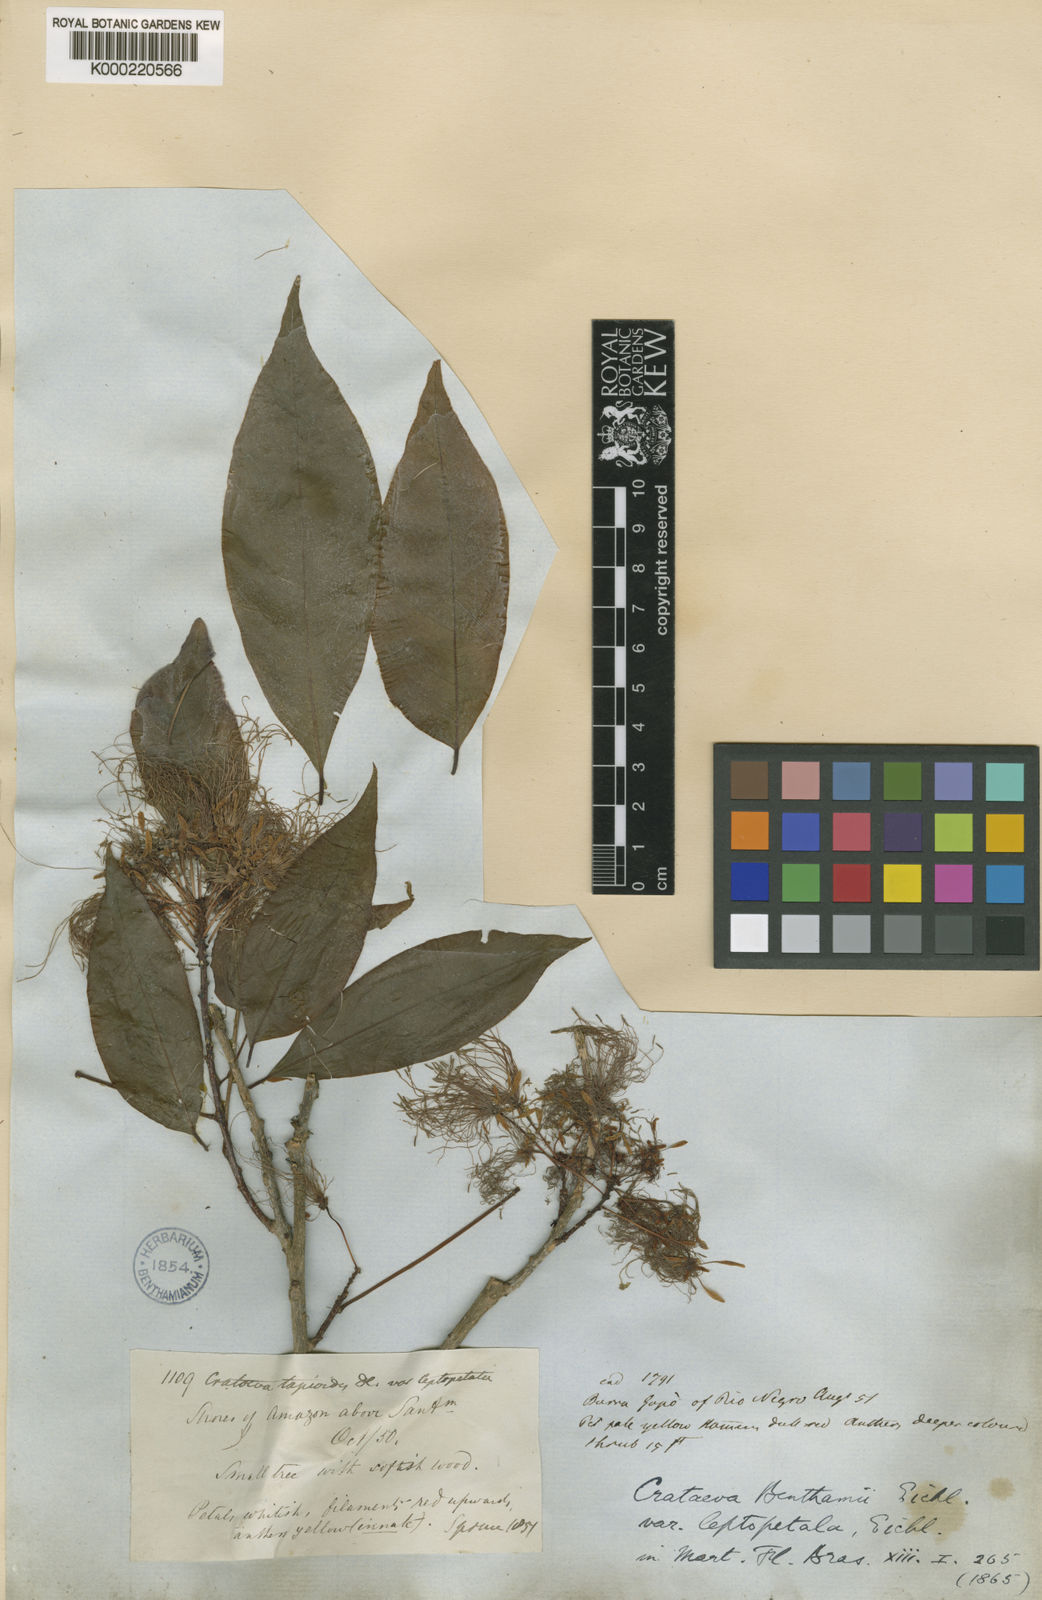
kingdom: Plantae
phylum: Tracheophyta
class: Magnoliopsida
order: Brassicales
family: Capparaceae
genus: Crateva
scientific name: Crateva tapia
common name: Garlic-pear
